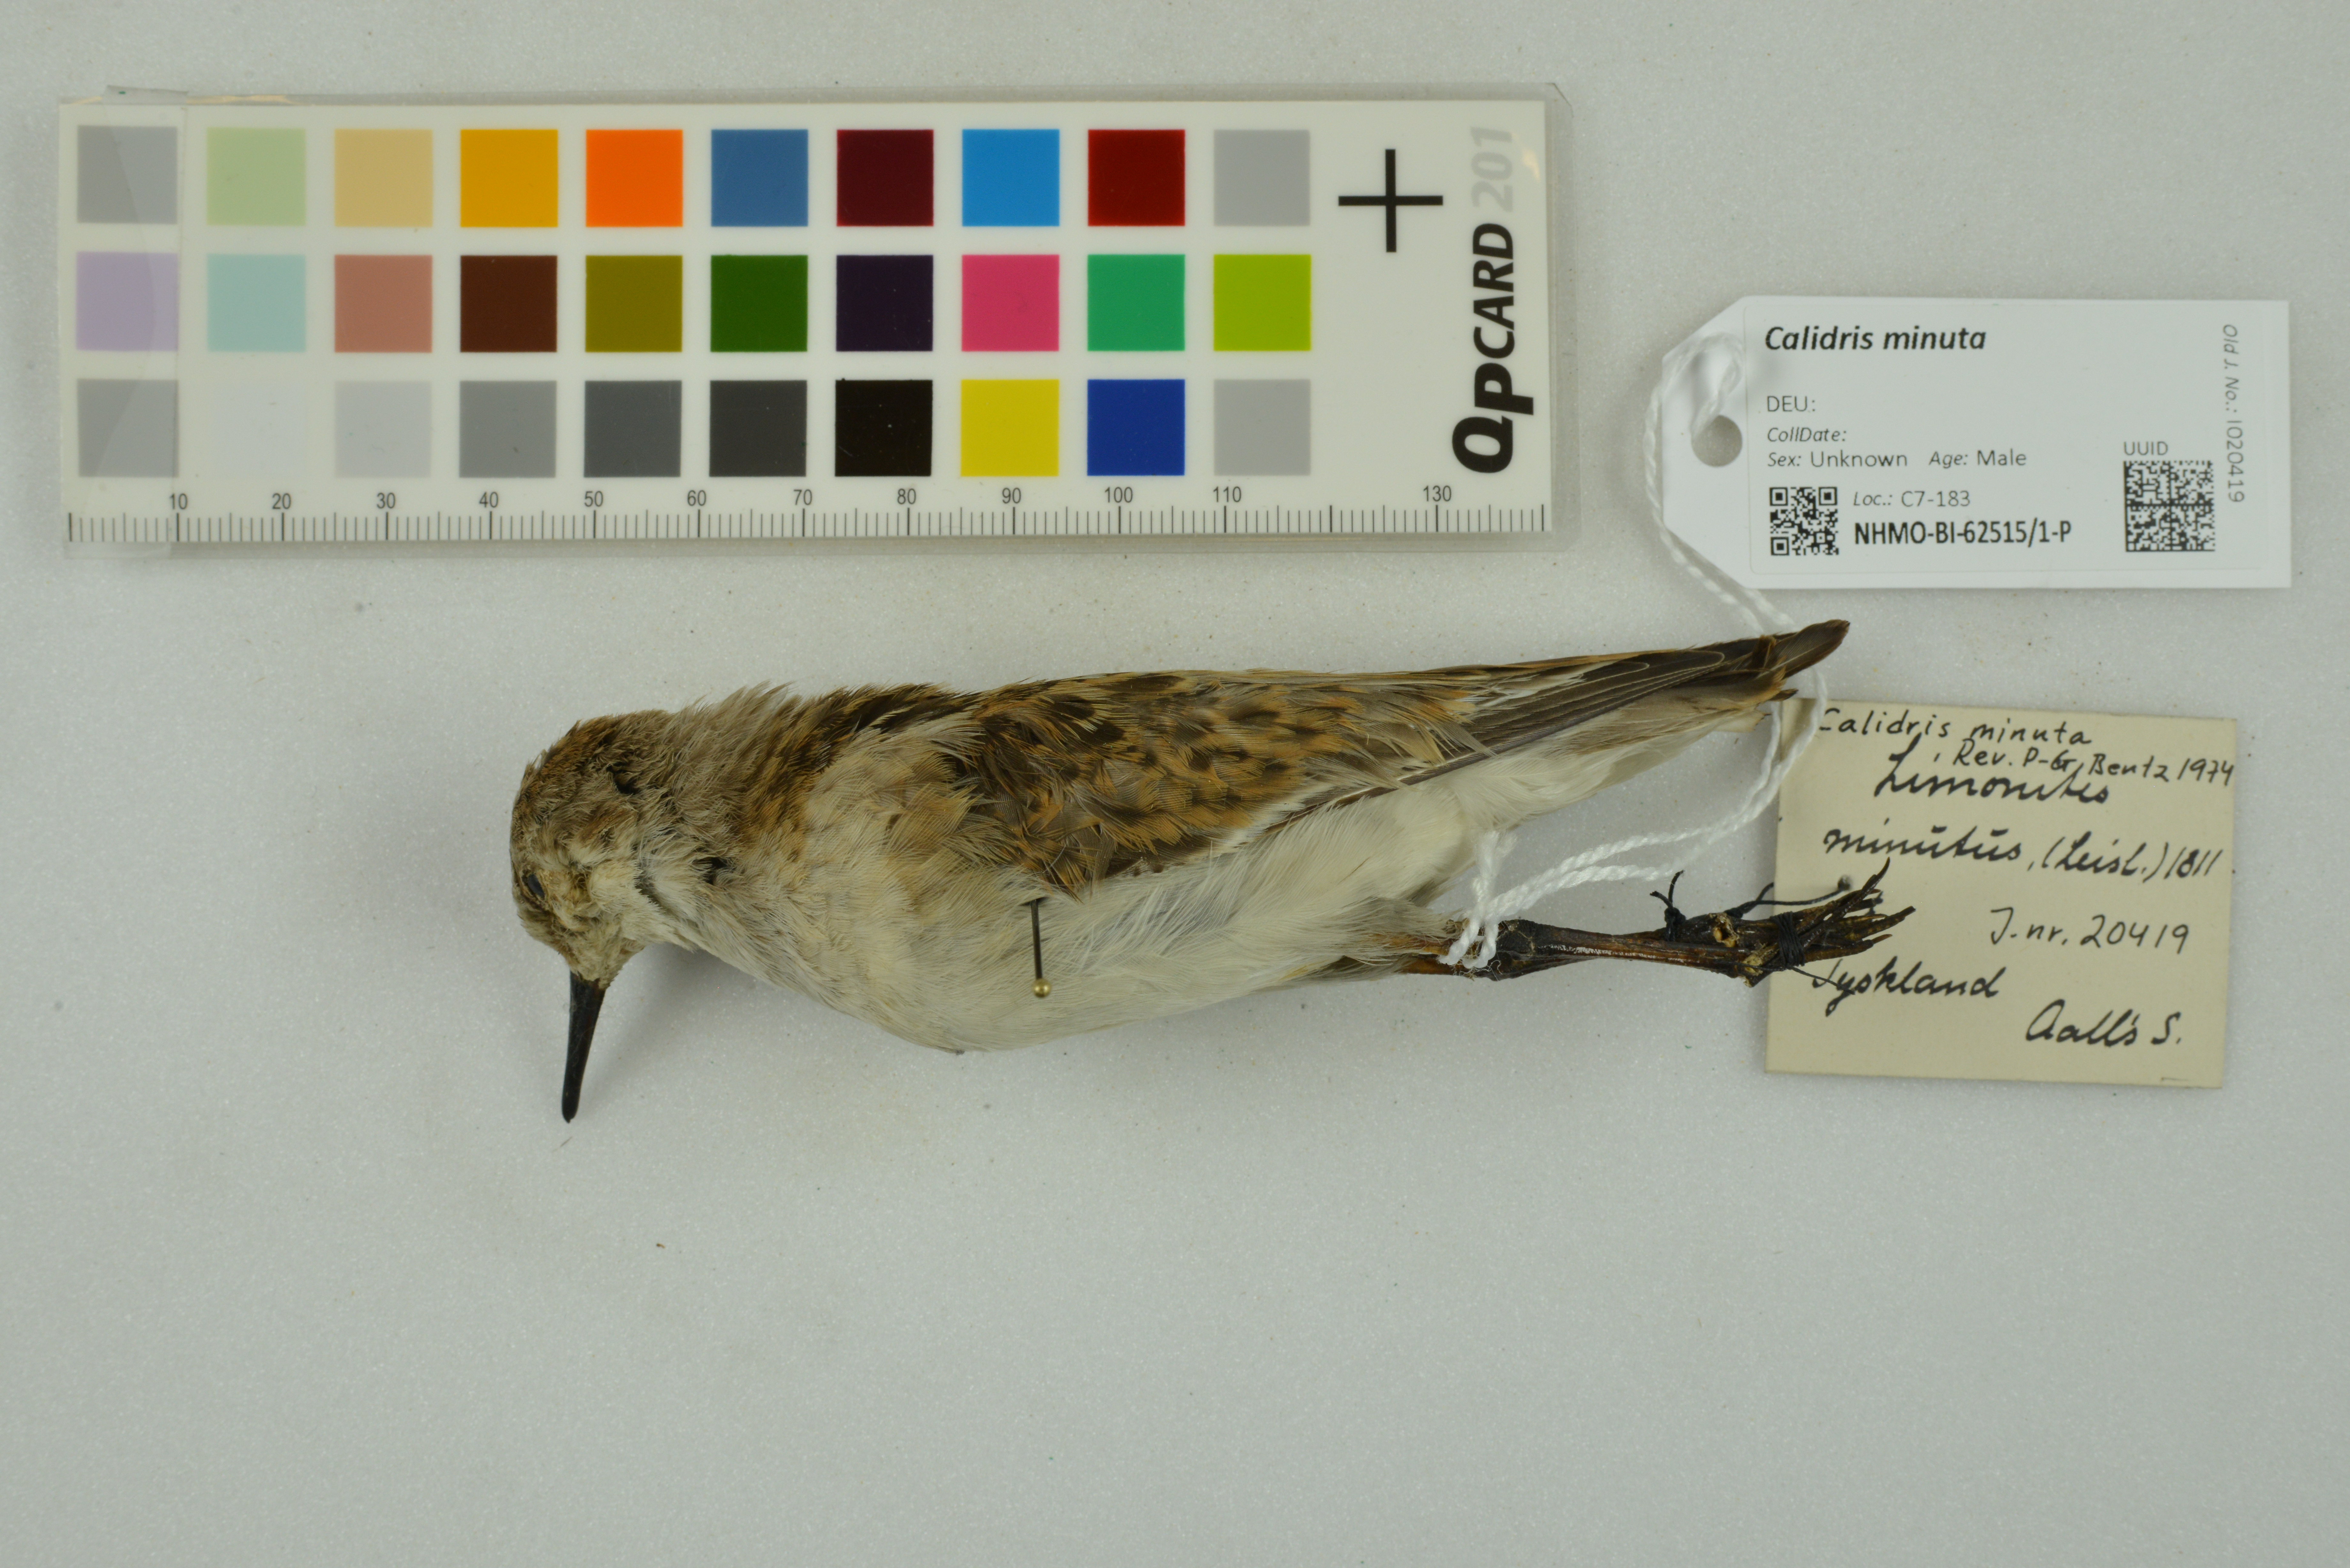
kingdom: Animalia
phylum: Chordata
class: Aves
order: Charadriiformes
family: Scolopacidae
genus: Calidris
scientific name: Calidris minuta
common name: Little stint
